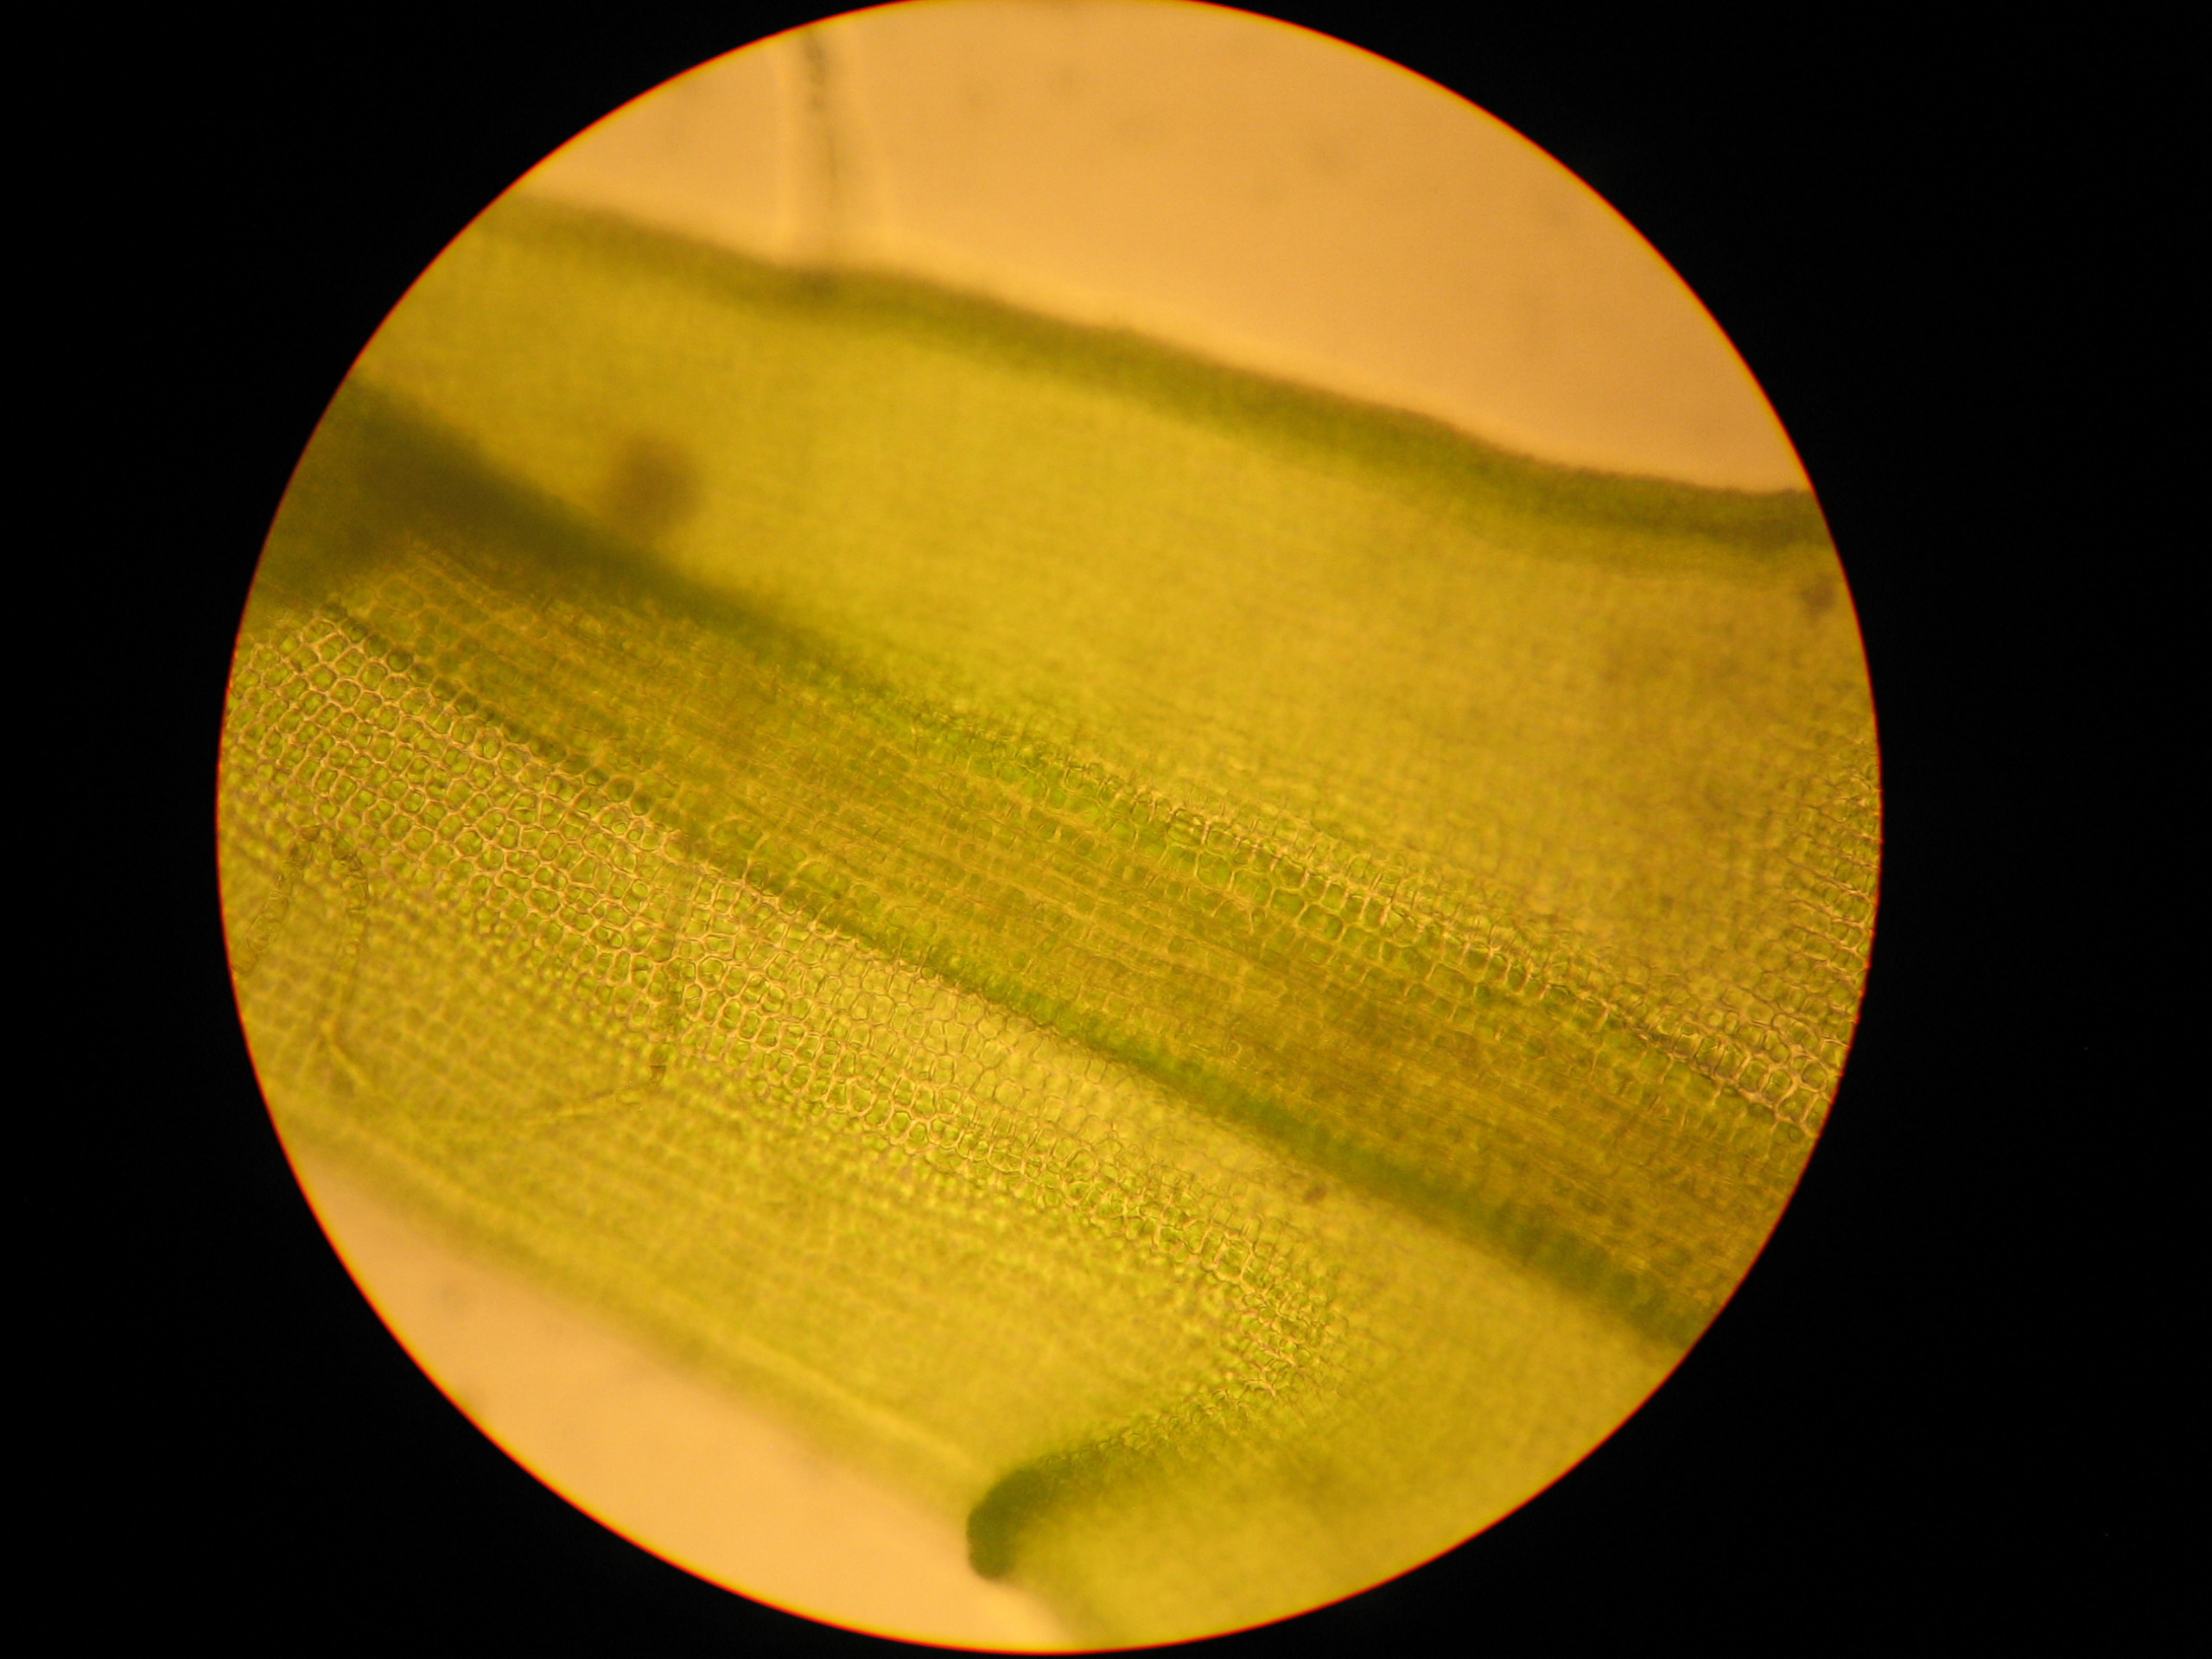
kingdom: Plantae
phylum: Bryophyta
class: Bryopsida
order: Pottiales
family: Pottiaceae
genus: Vinealobryum
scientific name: Vinealobryum insulanum
